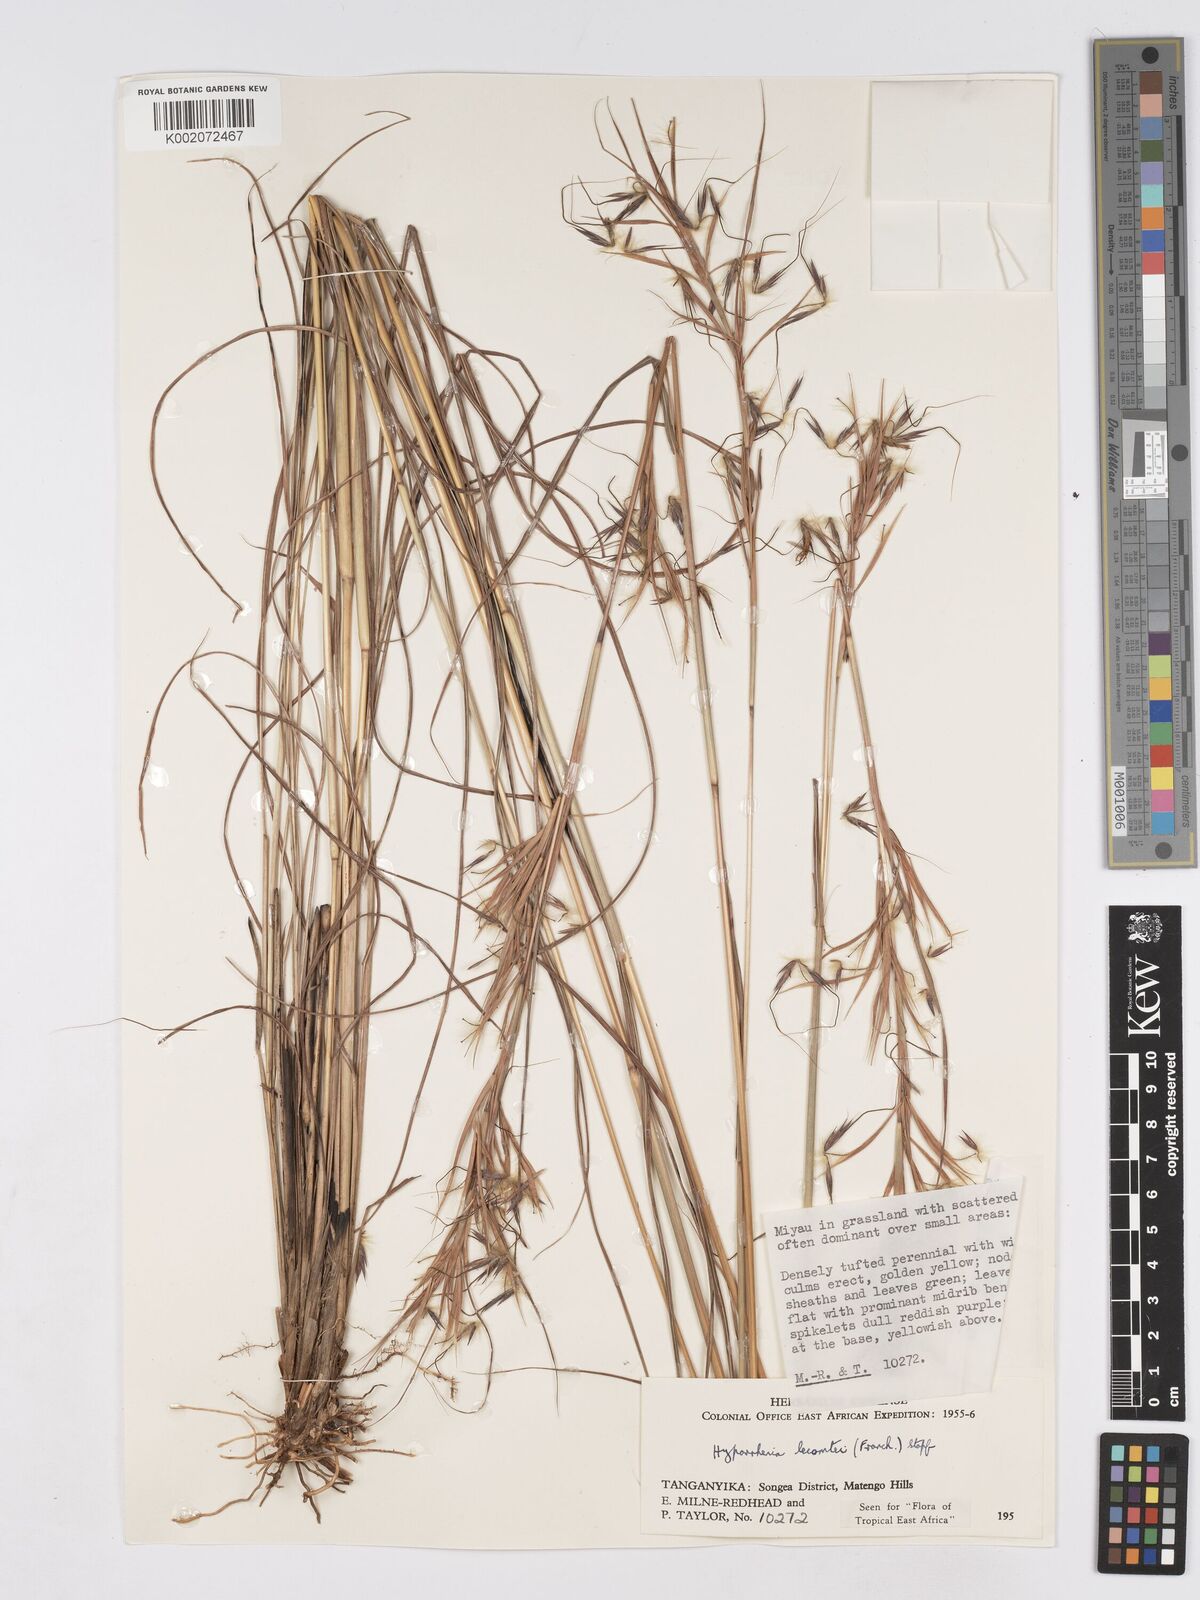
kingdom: Plantae
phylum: Tracheophyta
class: Liliopsida
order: Poales
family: Poaceae
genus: Hyparrhenia
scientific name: Hyparrhenia newtonii
